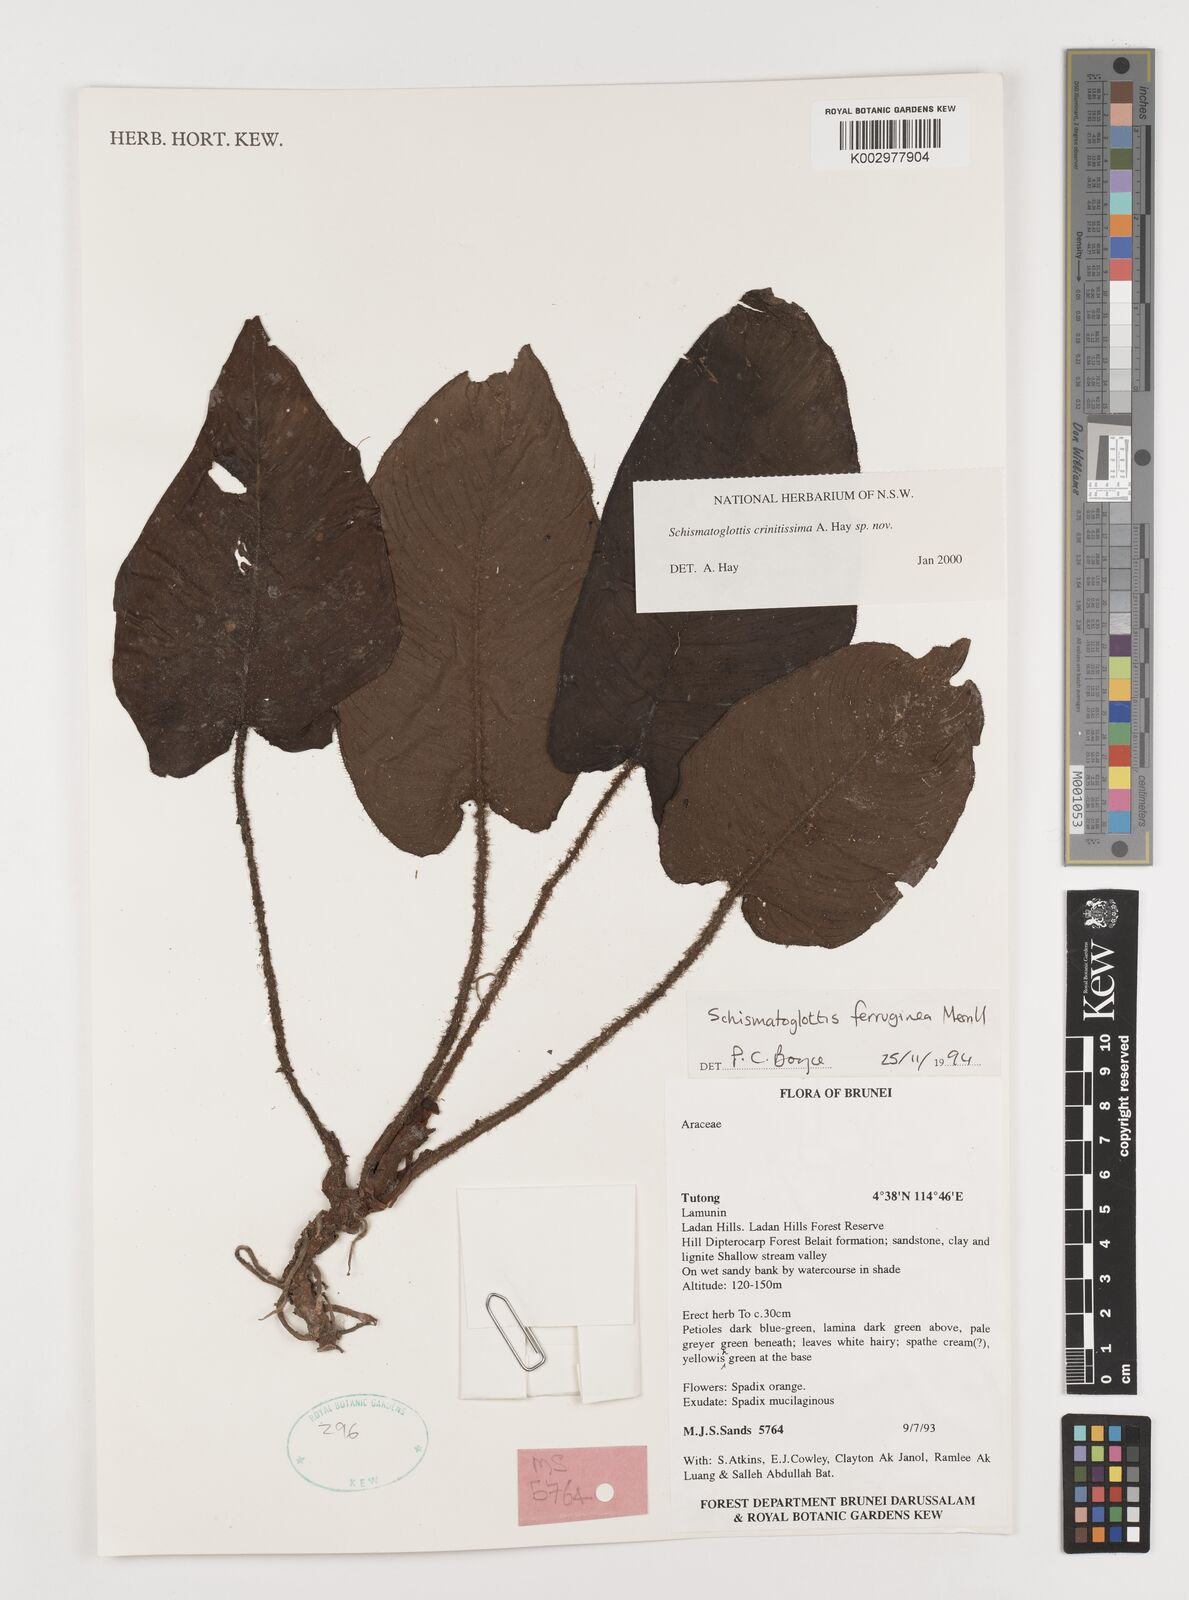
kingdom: Plantae
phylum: Tracheophyta
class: Liliopsida
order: Alismatales
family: Araceae
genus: Schismatoglottis
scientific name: Schismatoglottis crinitissima
